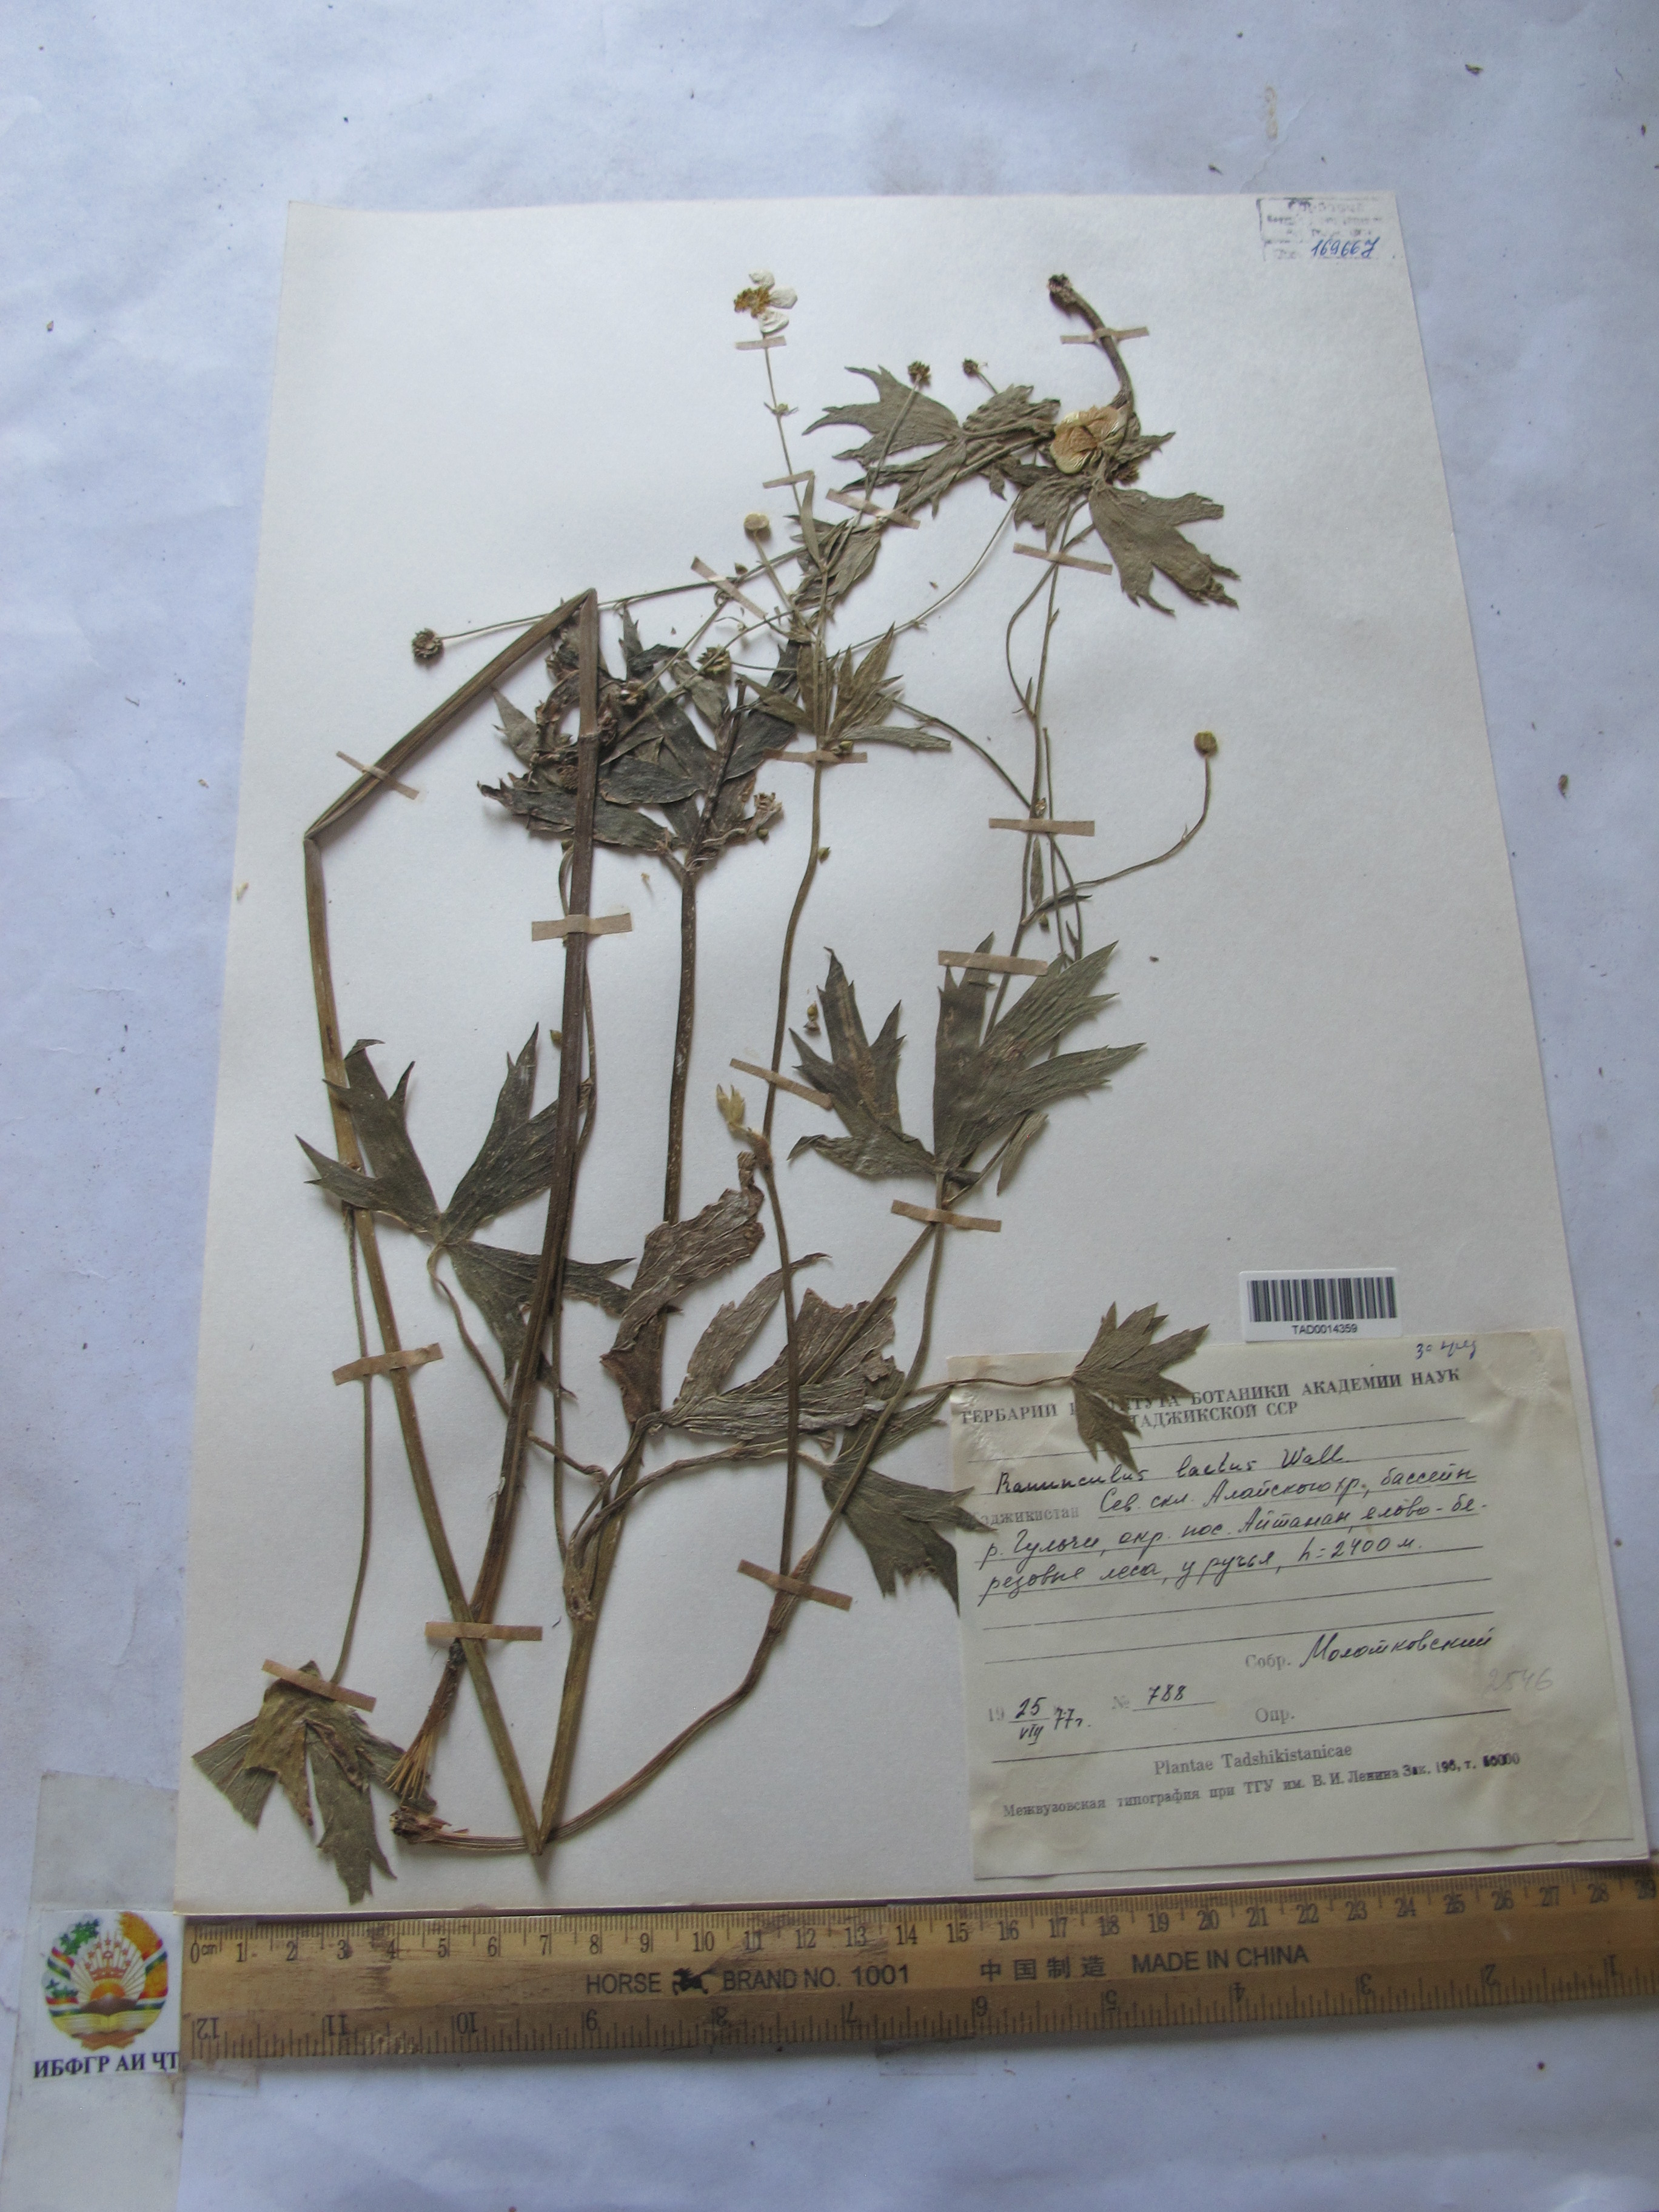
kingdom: Plantae
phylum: Tracheophyta
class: Magnoliopsida
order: Ranunculales
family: Ranunculaceae
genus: Ranunculus
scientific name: Ranunculus distans
